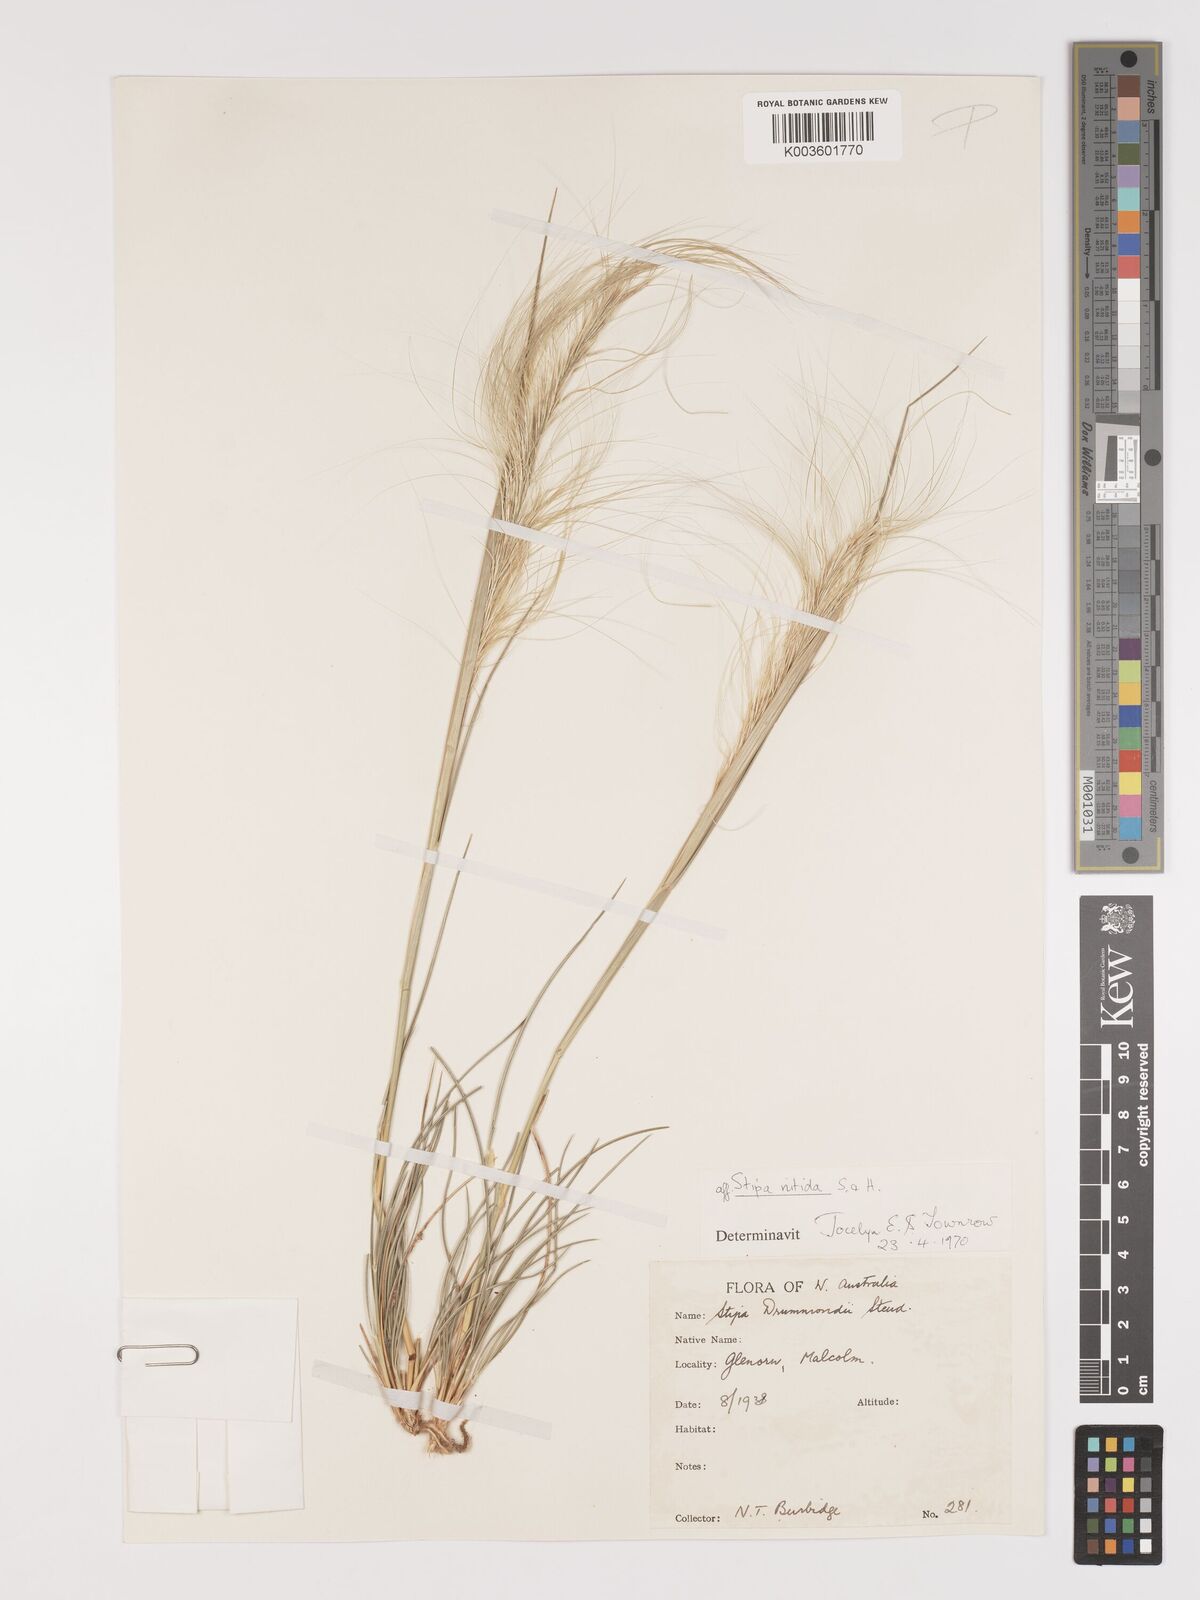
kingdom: Plantae
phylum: Tracheophyta
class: Liliopsida
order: Poales
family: Poaceae
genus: Austrostipa
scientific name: Austrostipa nitida
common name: Balcarra grass
